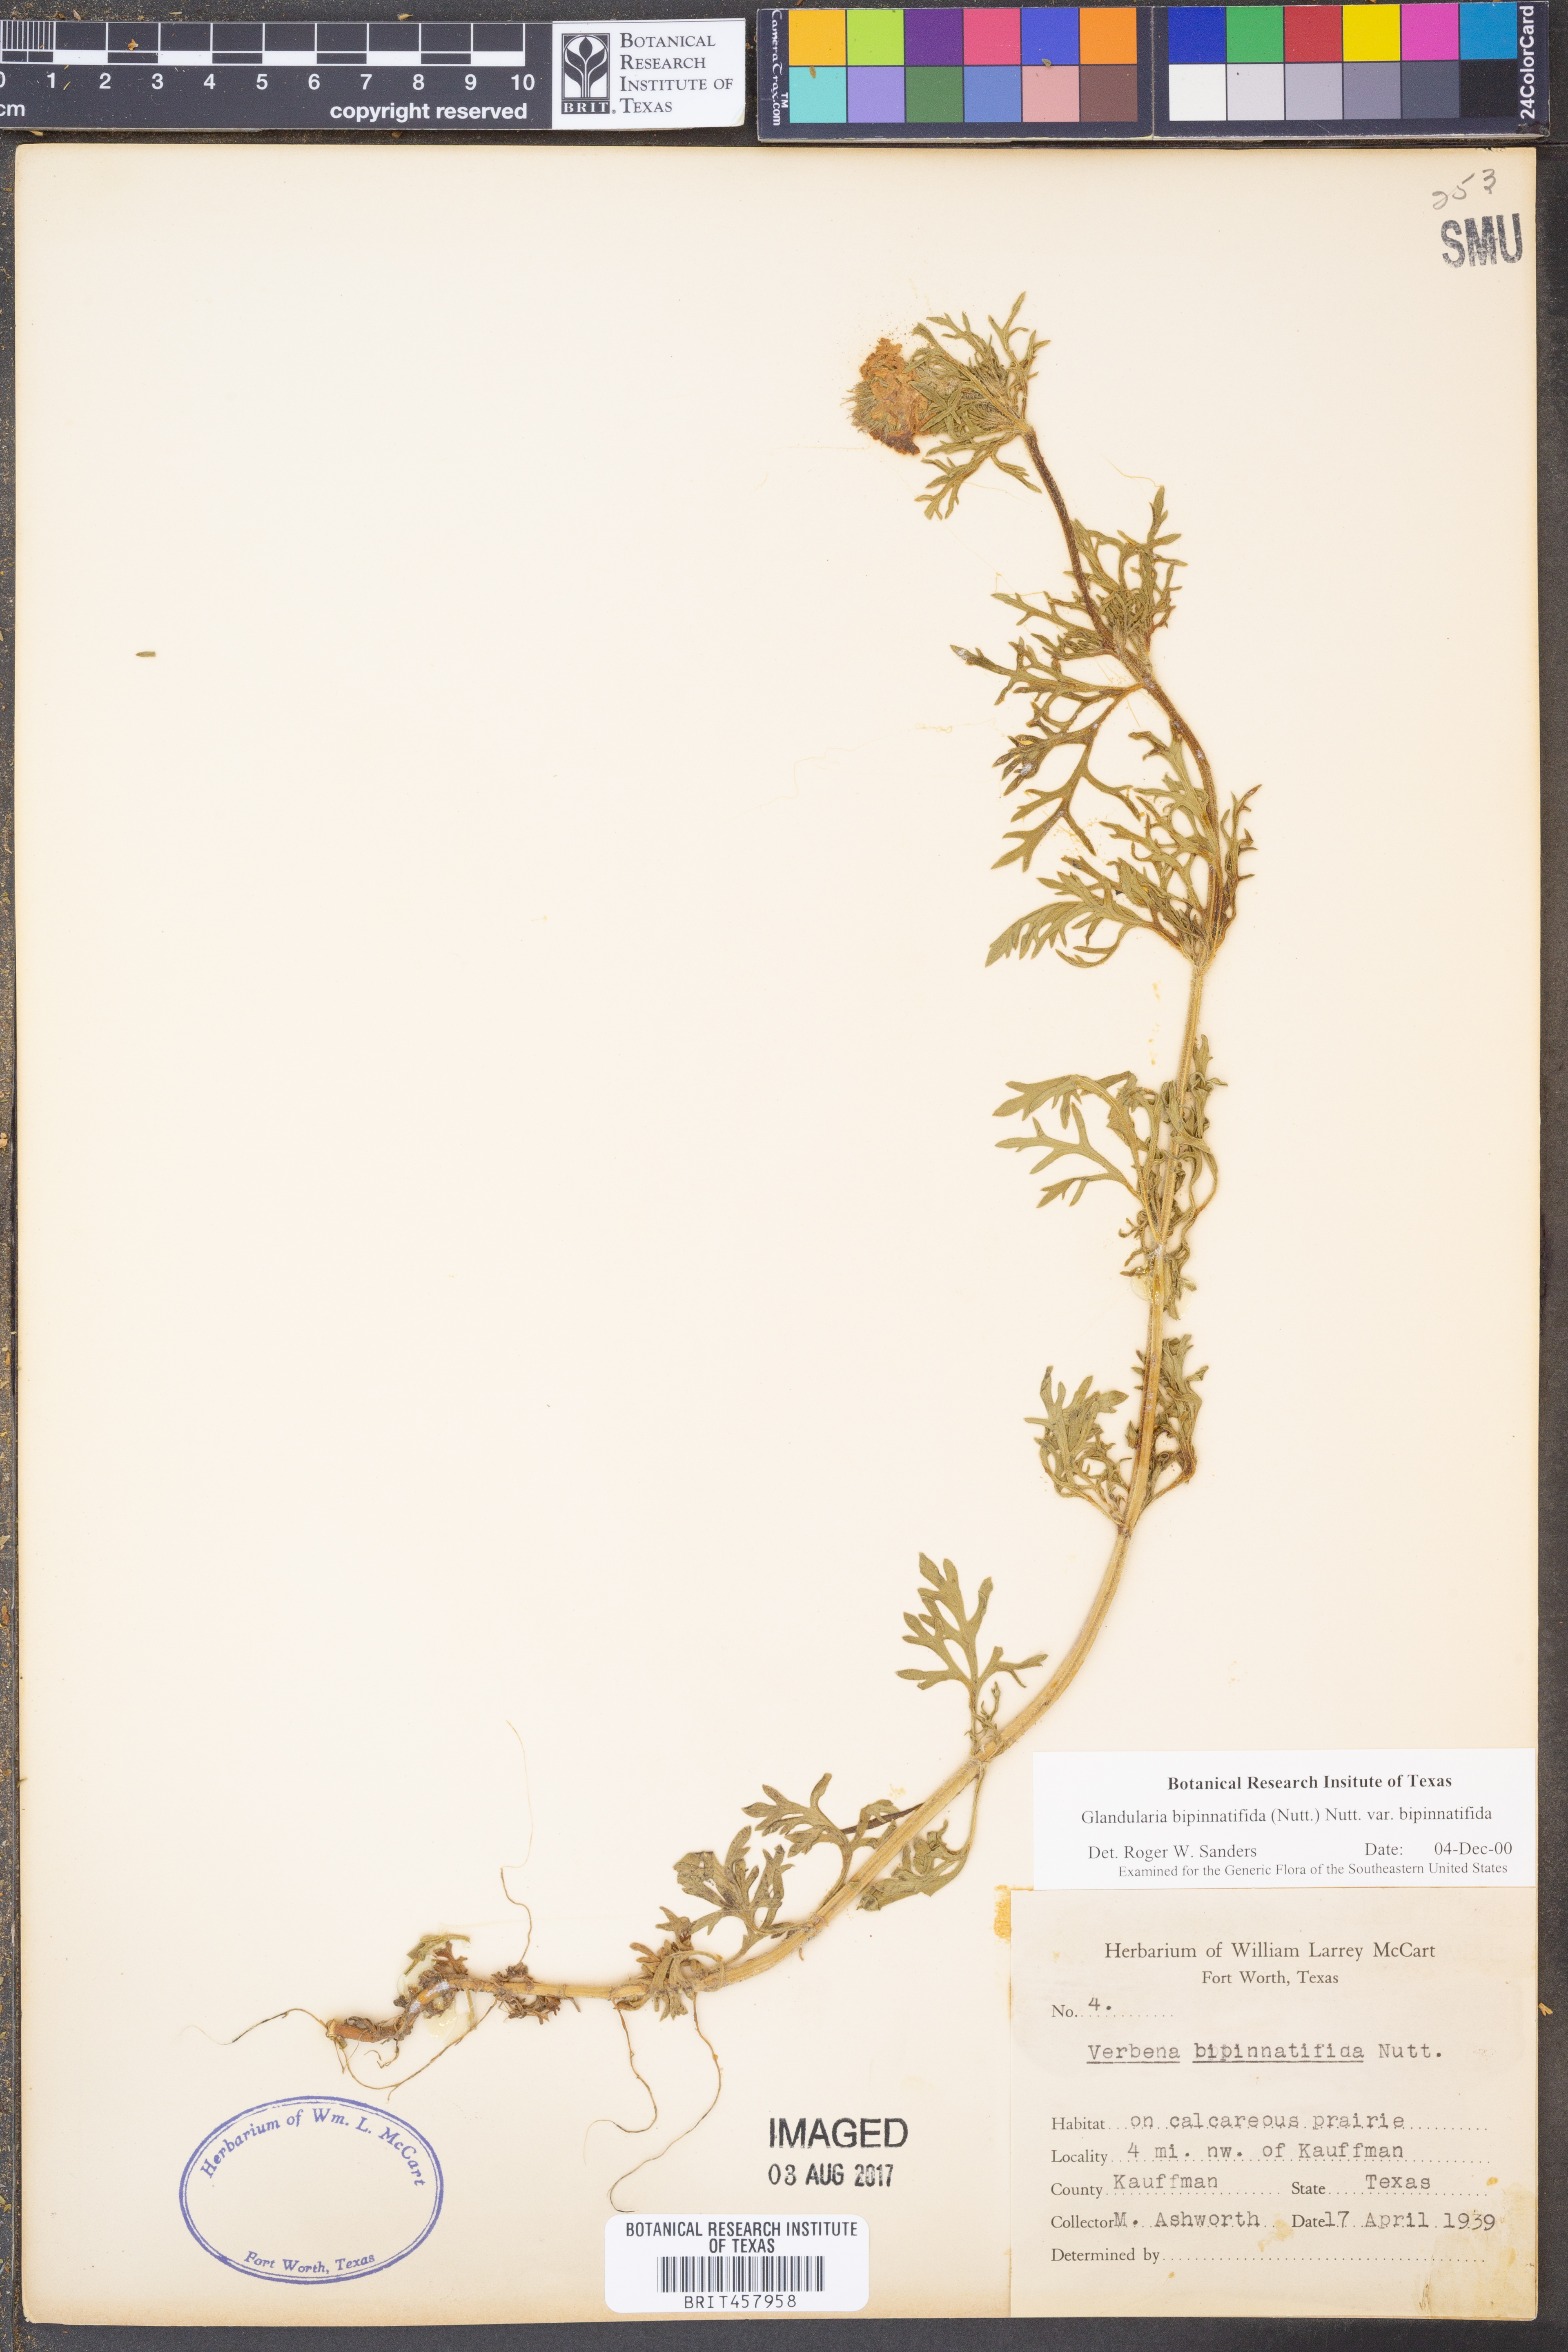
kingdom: Plantae
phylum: Tracheophyta
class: Magnoliopsida
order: Lamiales
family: Verbenaceae
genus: Verbena
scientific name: Verbena bipinnatifida
